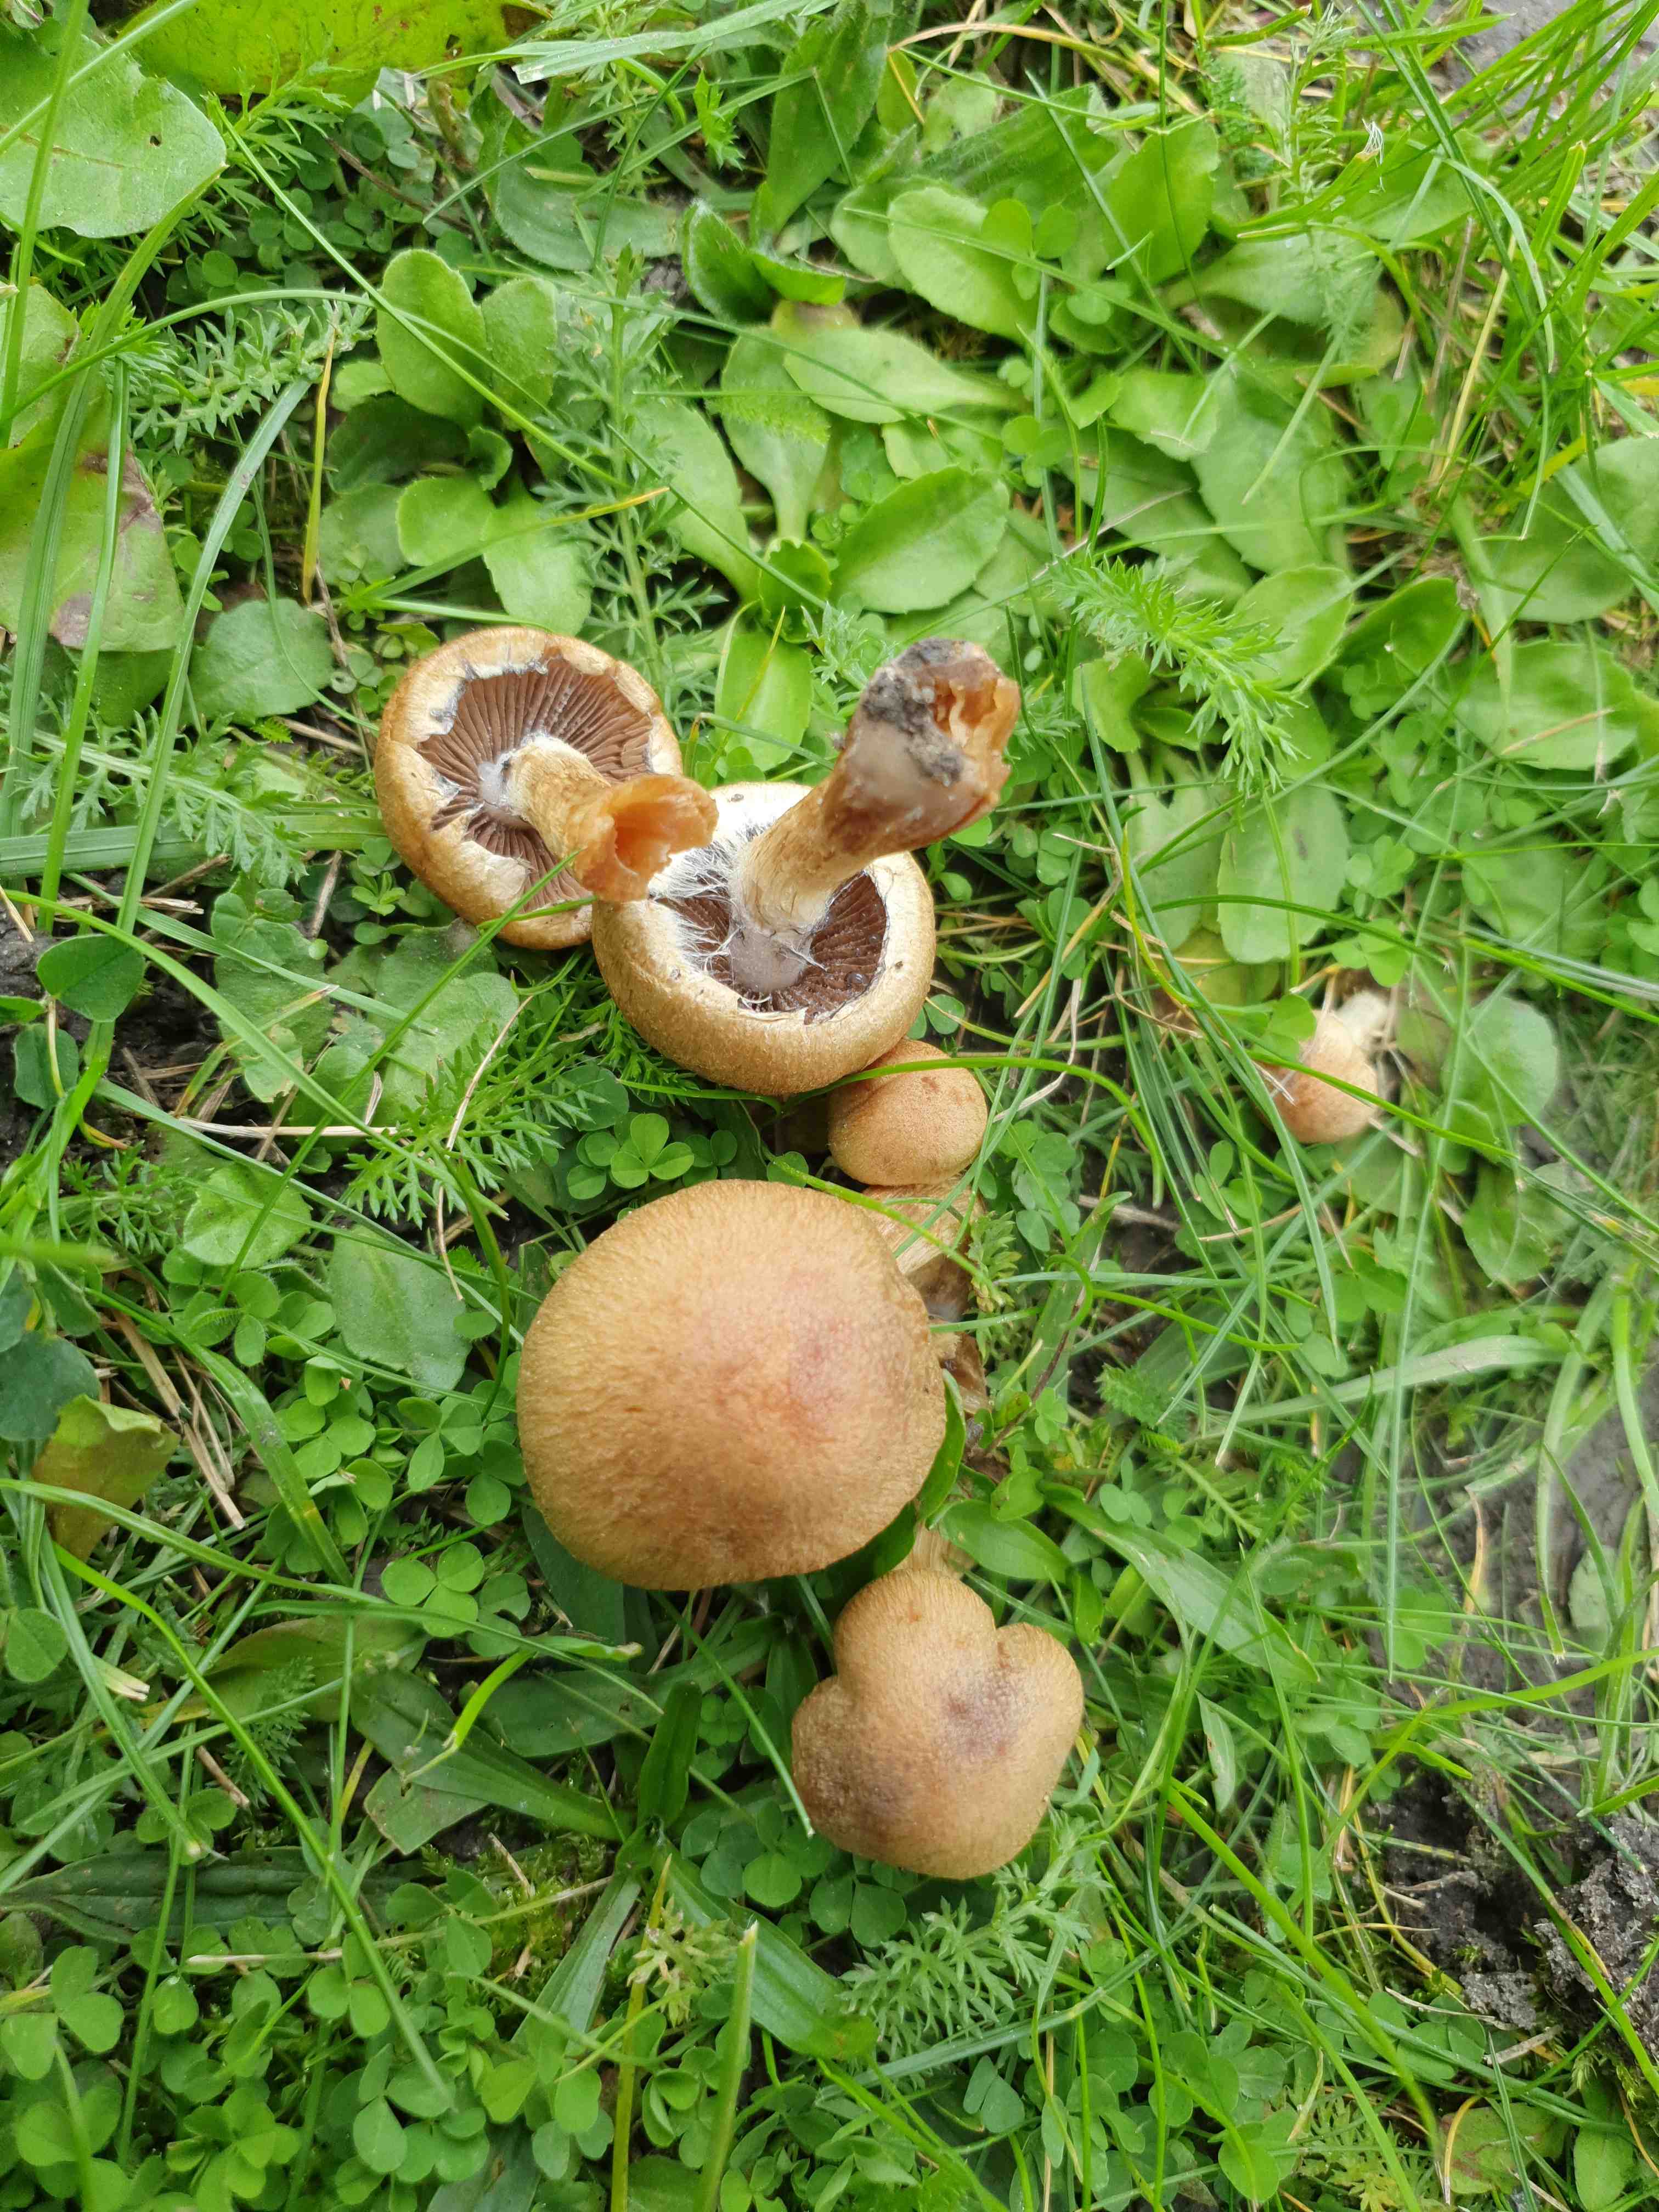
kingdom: Fungi
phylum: Basidiomycota
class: Agaricomycetes
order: Agaricales
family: Psathyrellaceae
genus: Lacrymaria
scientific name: Lacrymaria lacrymabunda
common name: grædende mørkhat
